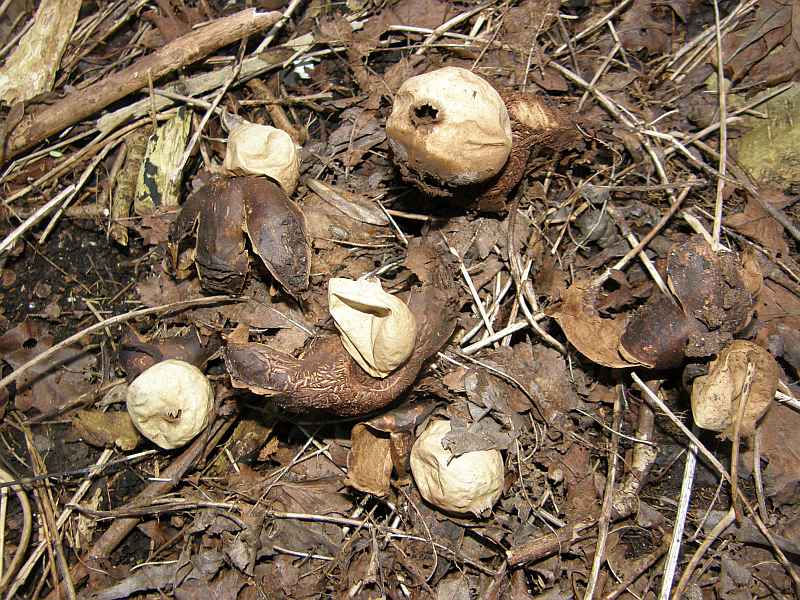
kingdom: Fungi
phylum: Basidiomycota
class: Agaricomycetes
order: Geastrales
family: Geastraceae
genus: Geastrum
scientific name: Geastrum michelianum
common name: kødet stjernebold
